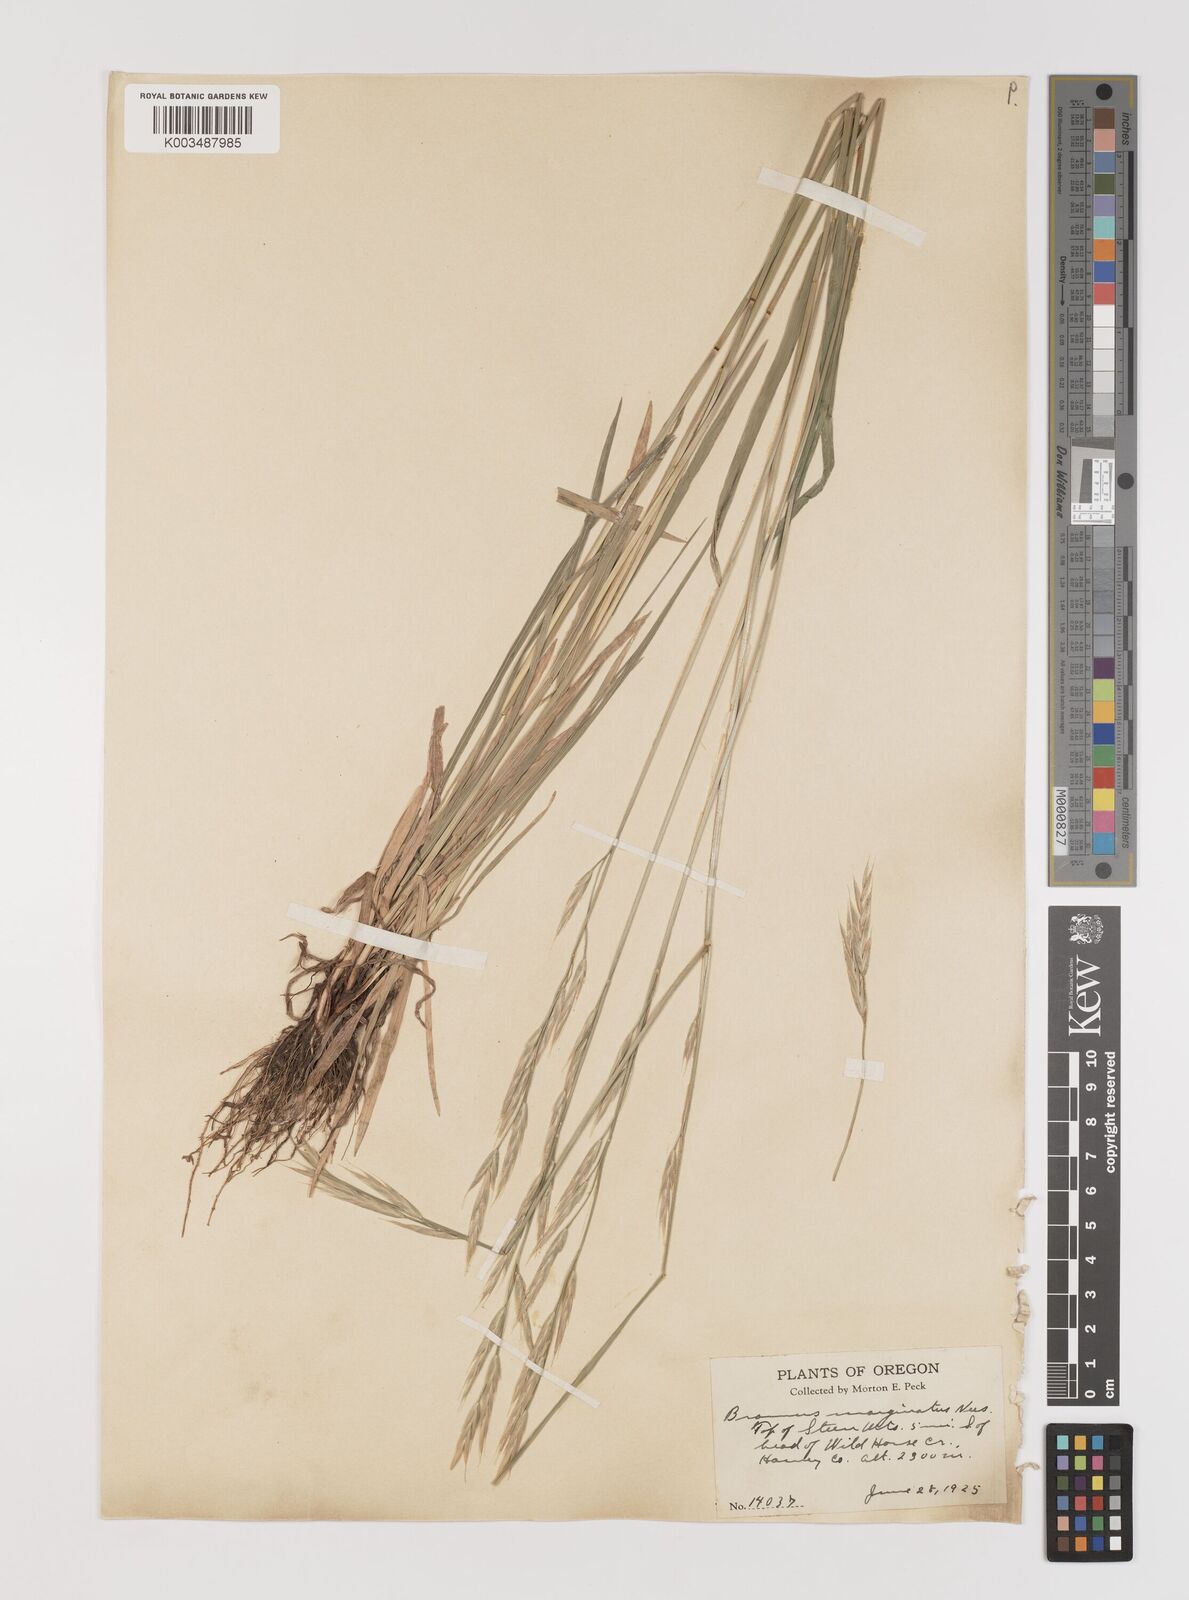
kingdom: Plantae
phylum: Tracheophyta
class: Liliopsida
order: Poales
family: Poaceae
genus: Bromus
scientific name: Bromus marginatus
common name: Western brome
